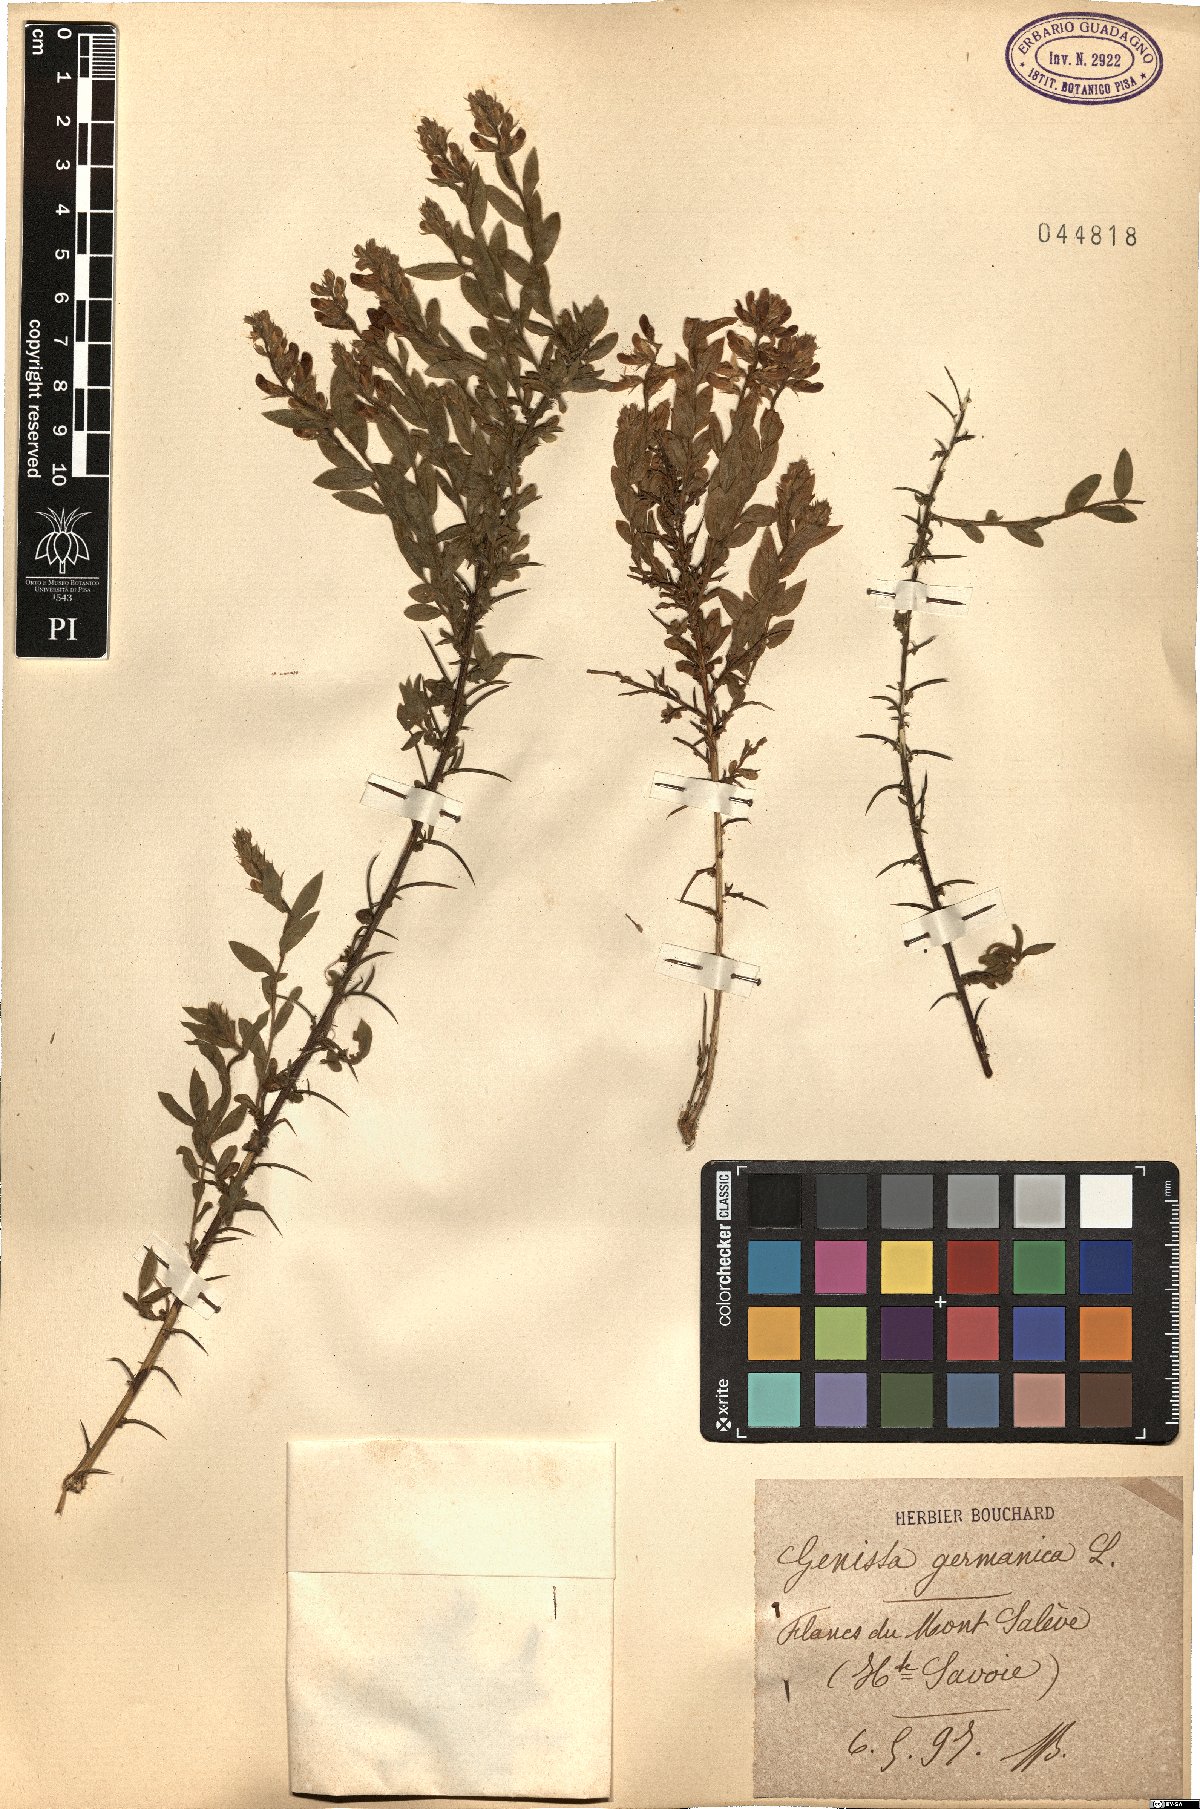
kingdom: Plantae
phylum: Tracheophyta
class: Magnoliopsida
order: Fabales
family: Fabaceae
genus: Genista
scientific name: Genista germanica
